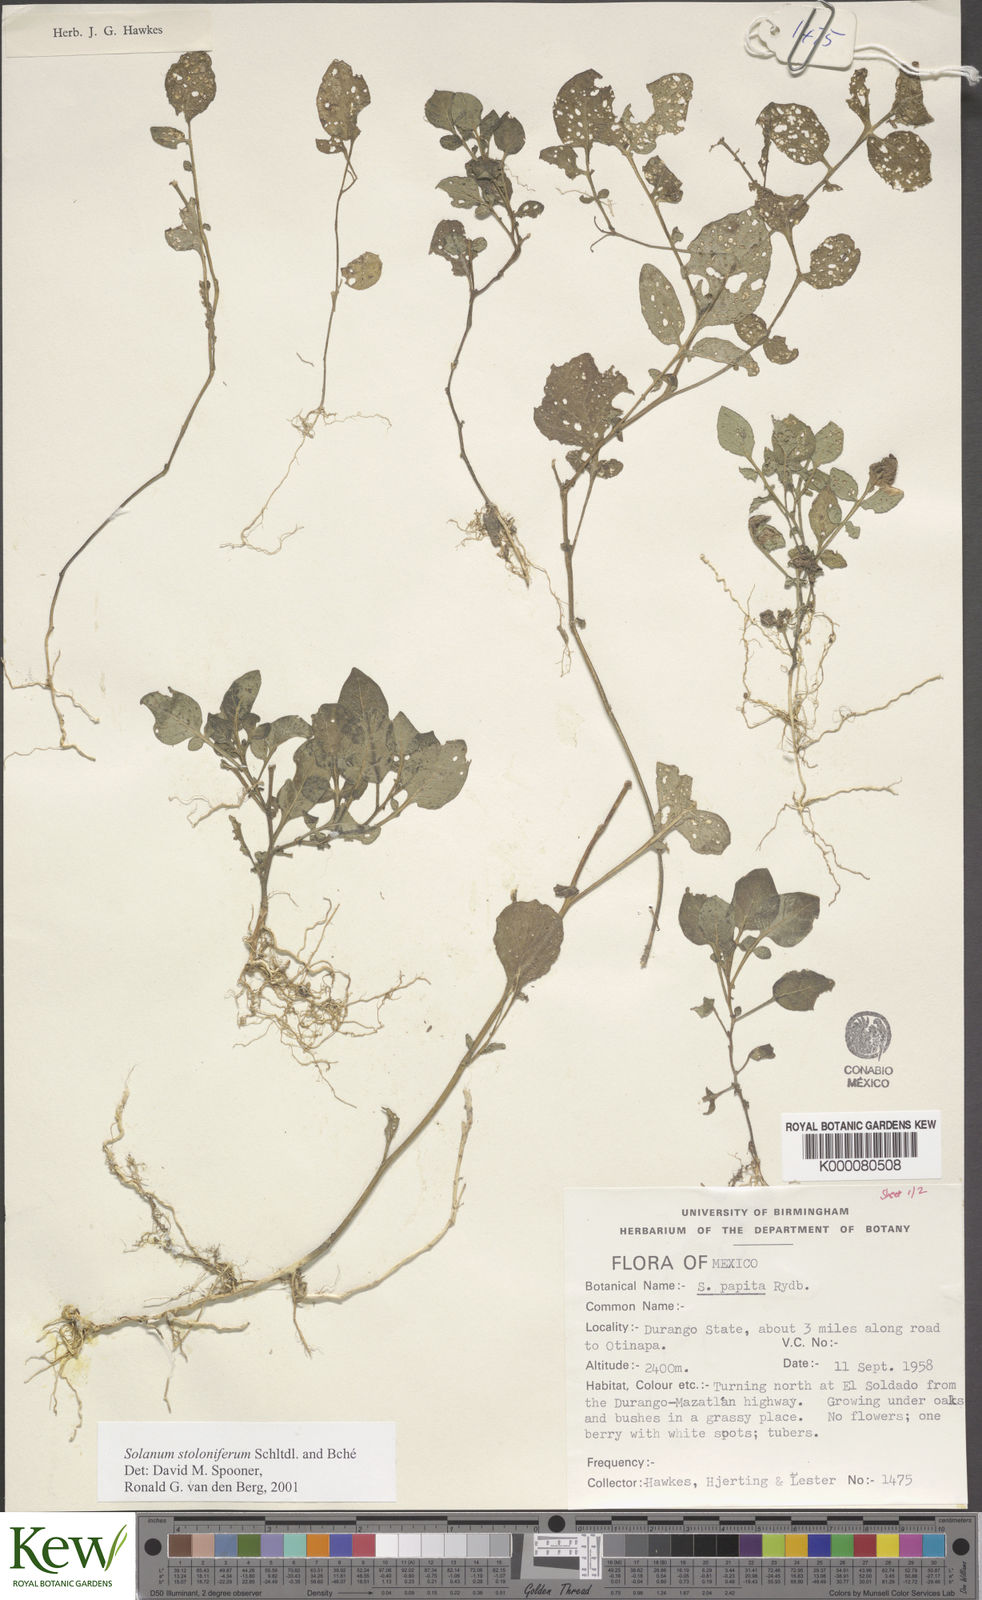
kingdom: Plantae
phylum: Tracheophyta
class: Magnoliopsida
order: Solanales
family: Solanaceae
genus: Solanum
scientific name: Solanum stoloniferum
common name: Fendler's nighshade
